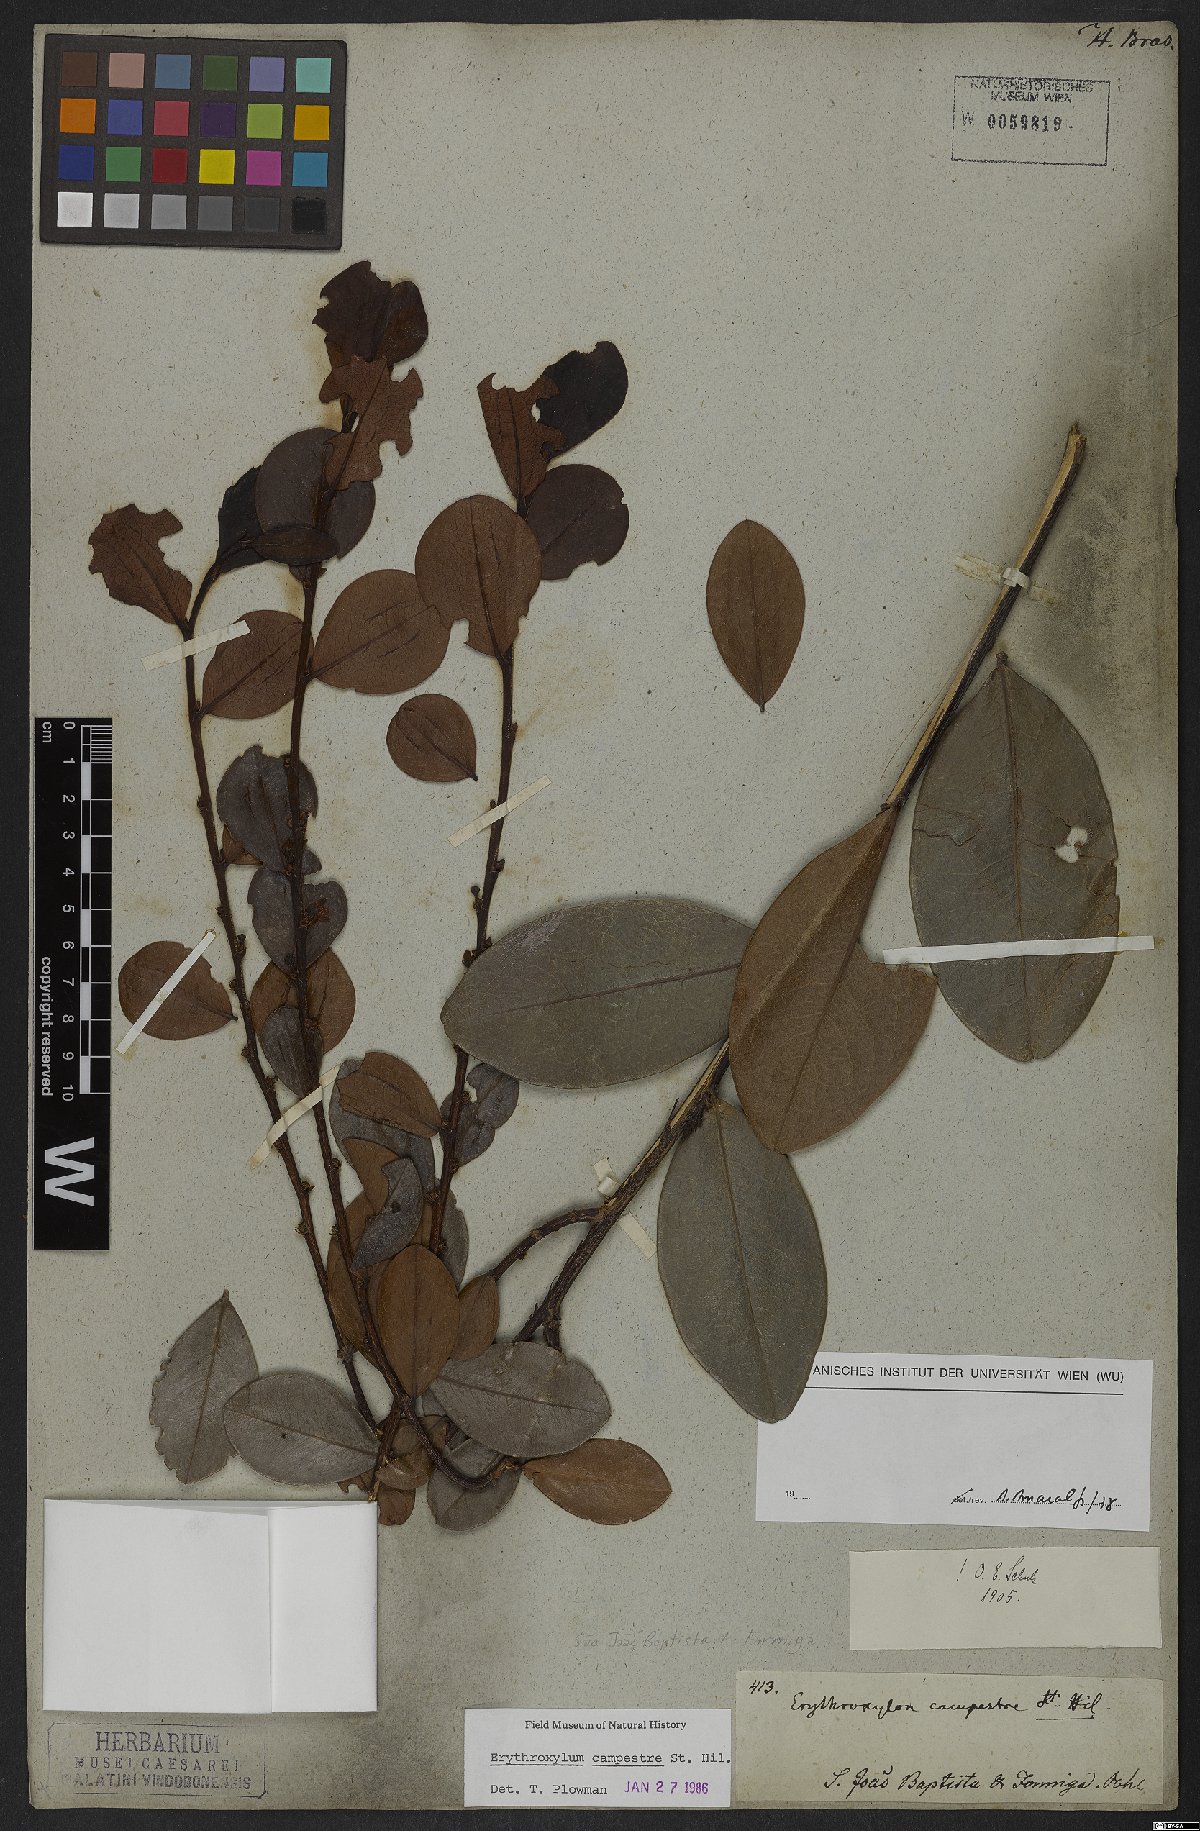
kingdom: Plantae
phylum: Tracheophyta
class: Magnoliopsida
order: Malpighiales
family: Erythroxylaceae
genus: Erythroxylum
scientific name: Erythroxylum campestre
